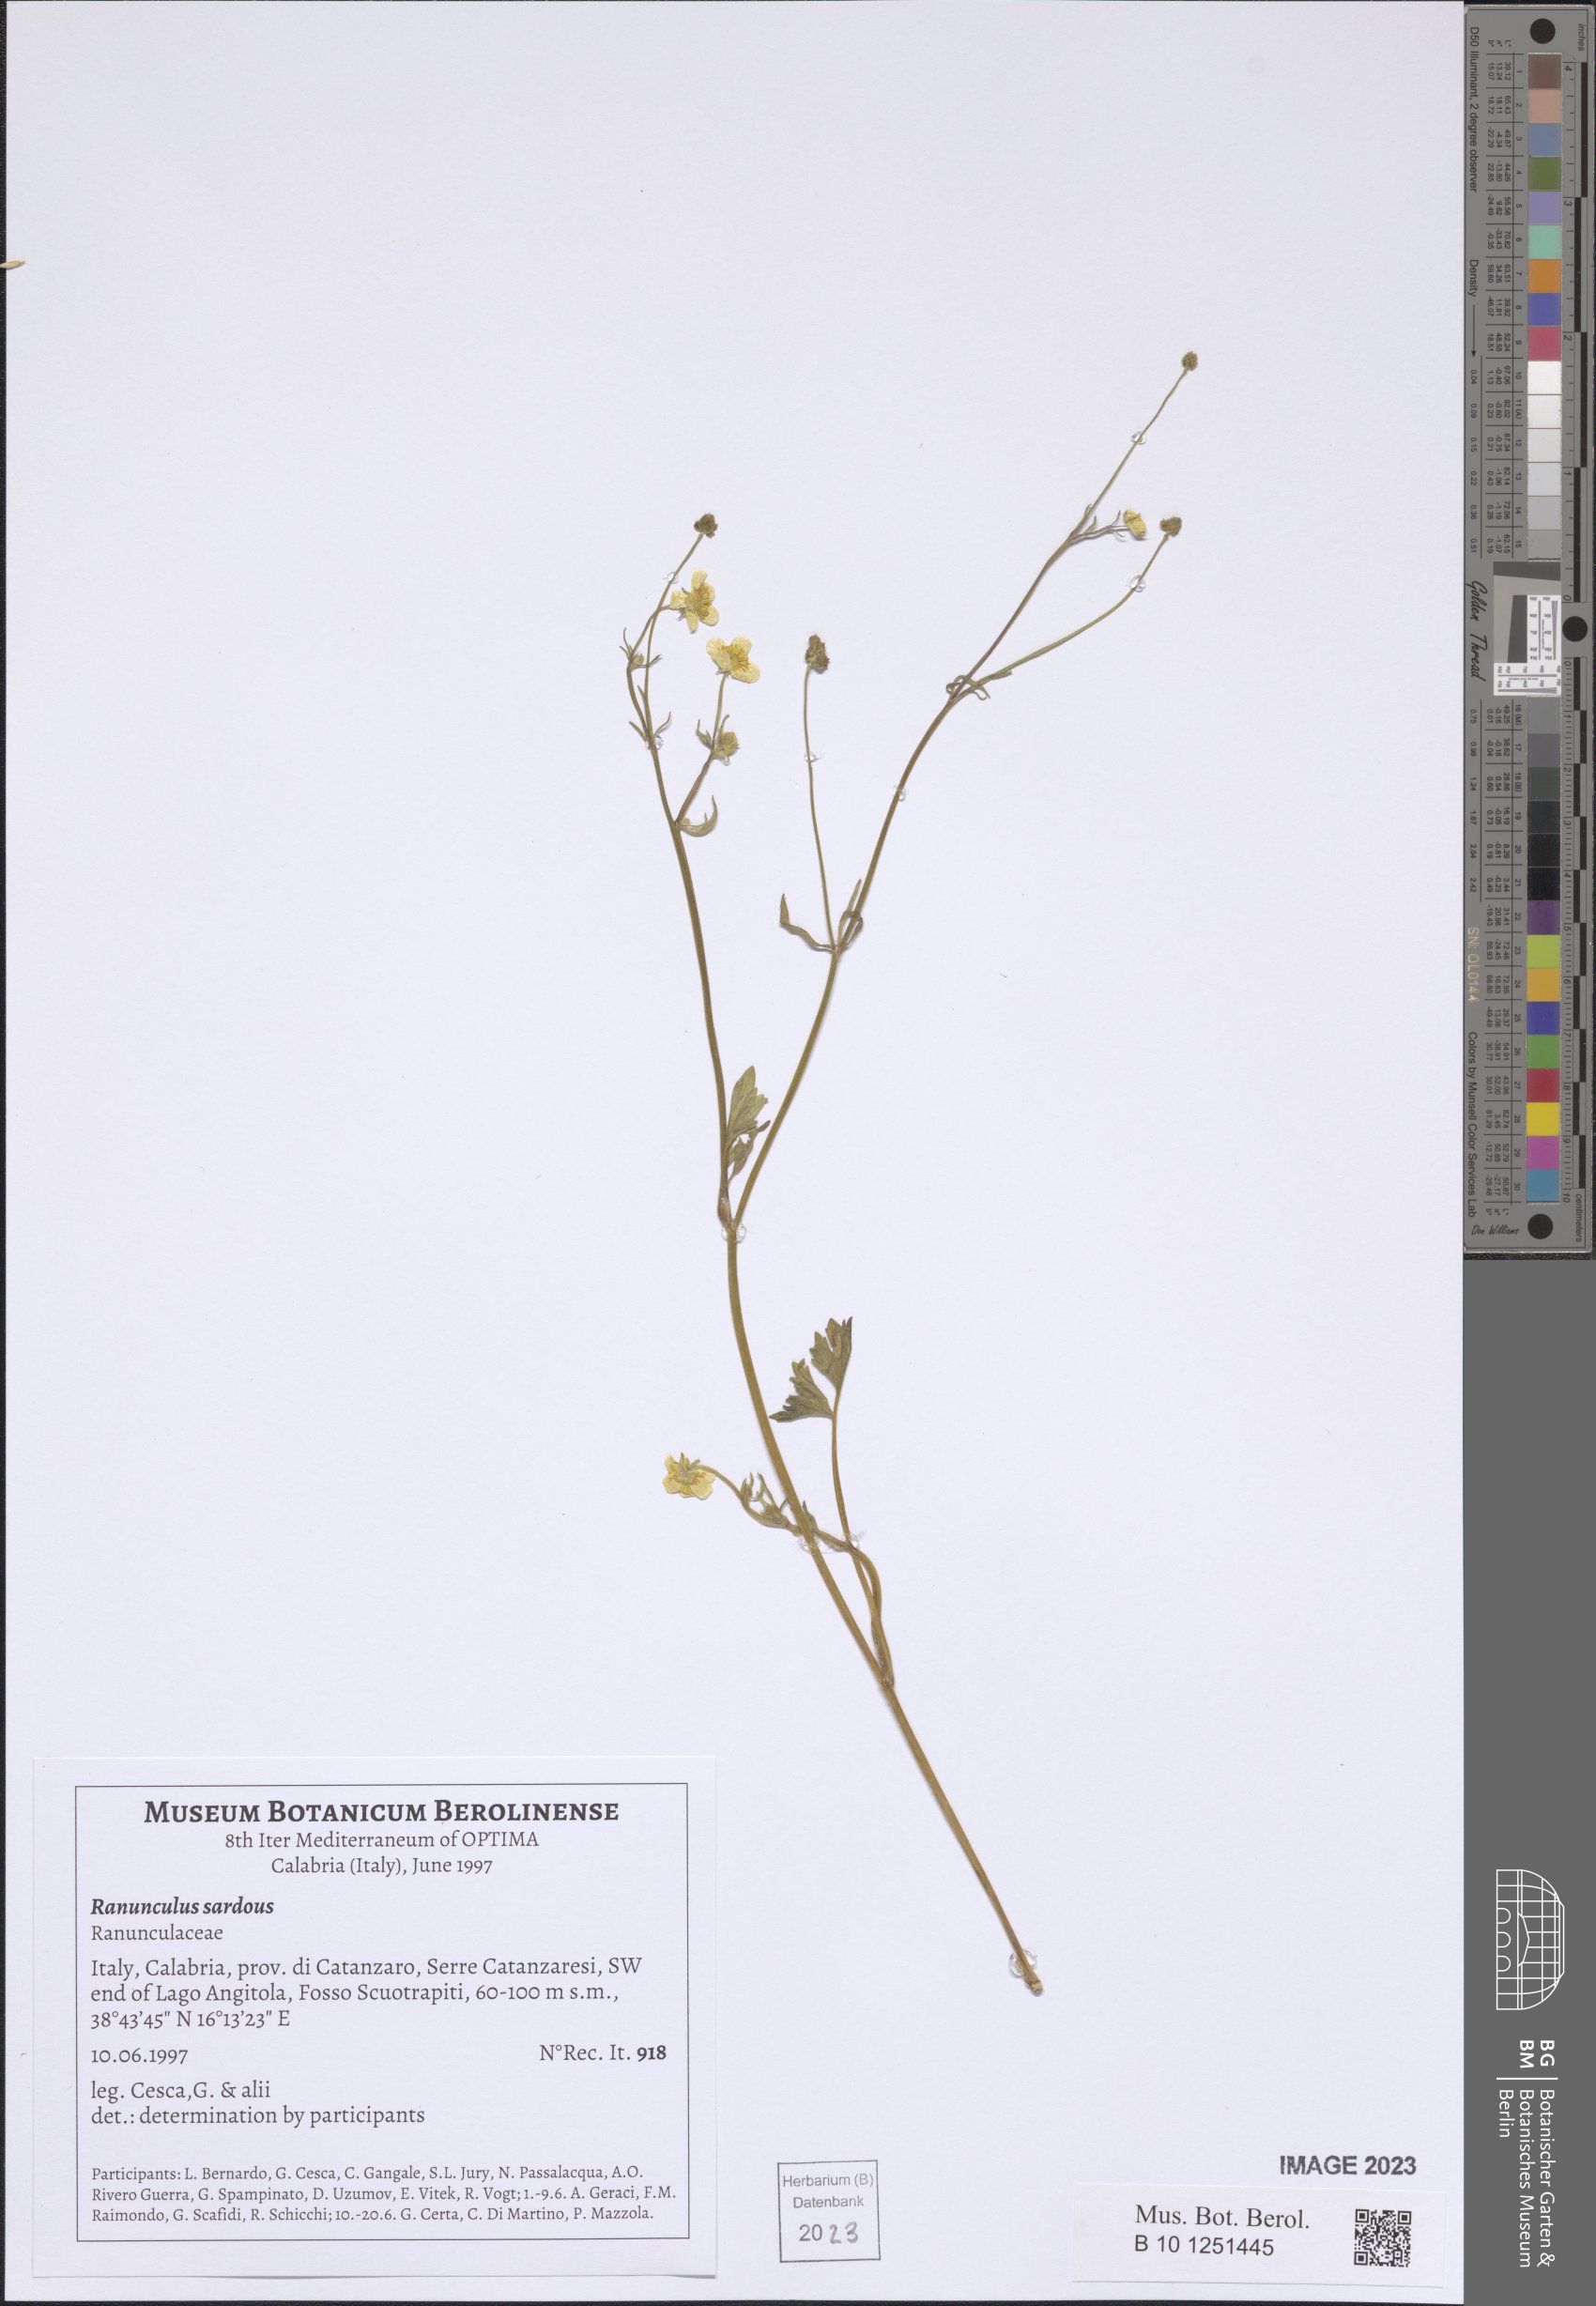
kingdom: Plantae
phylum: Tracheophyta
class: Magnoliopsida
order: Ranunculales
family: Ranunculaceae
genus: Ranunculus
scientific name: Ranunculus sardous
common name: Hairy buttercup
